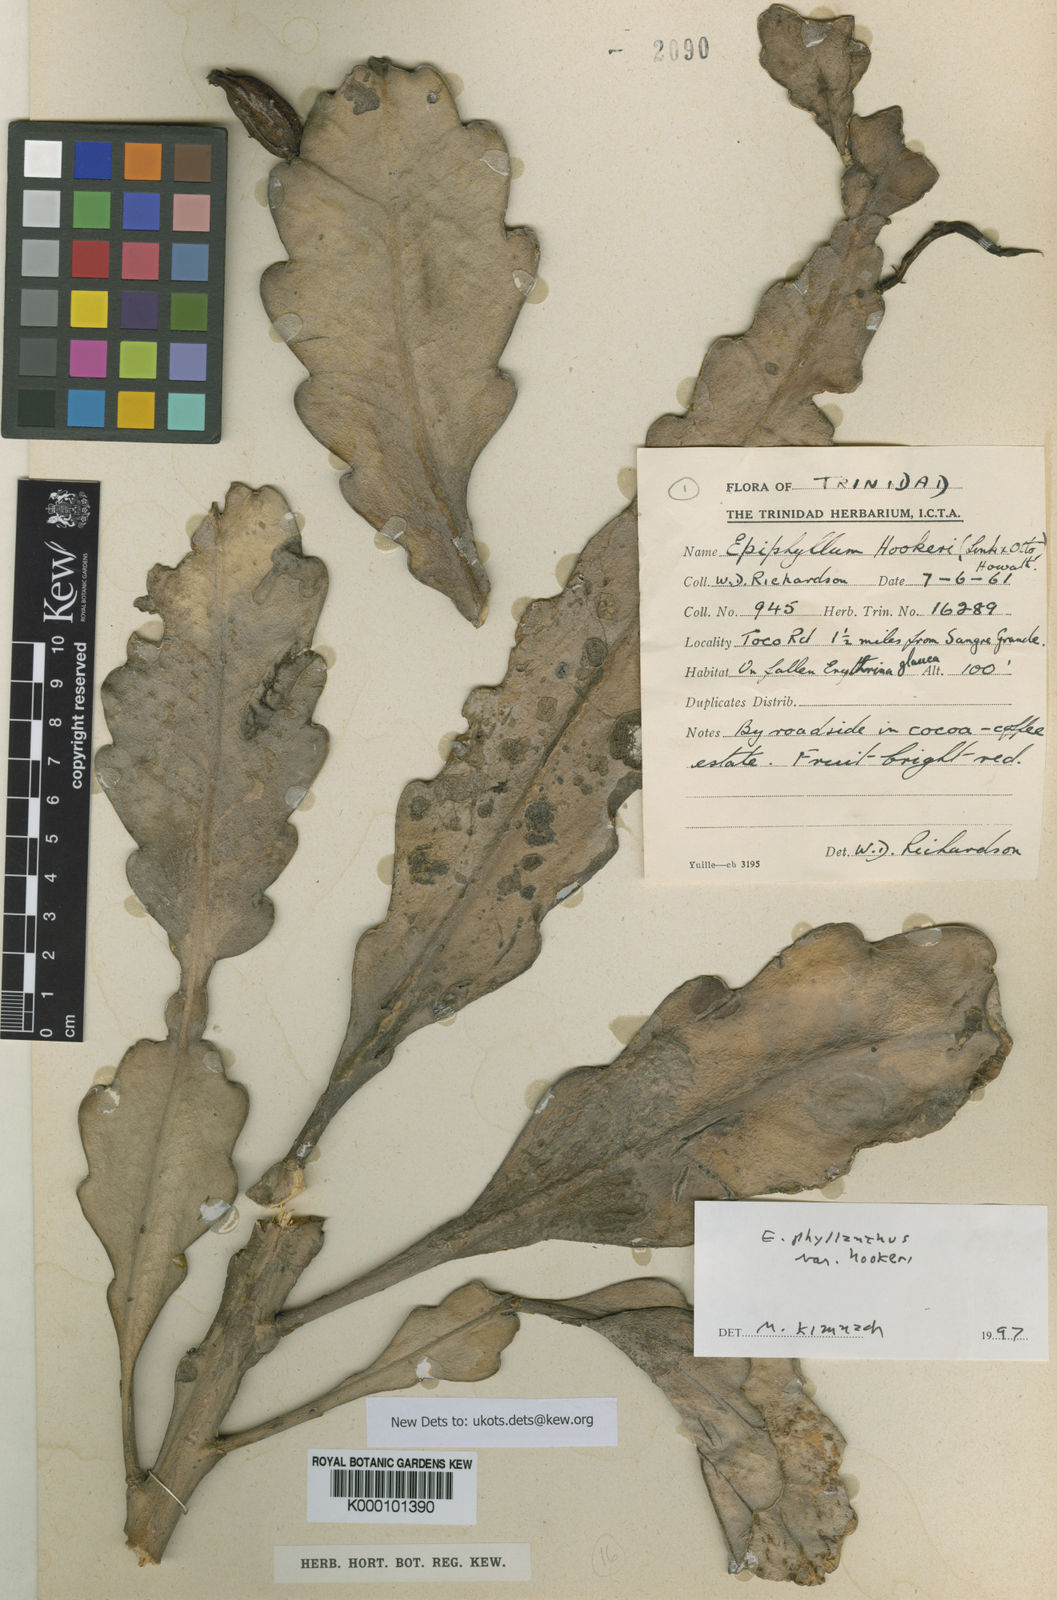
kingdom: Plantae
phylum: Tracheophyta
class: Magnoliopsida
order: Caryophyllales
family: Cactaceae
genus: Epiphyllum
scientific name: Epiphyllum phyllanthus
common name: Climbing cactus
